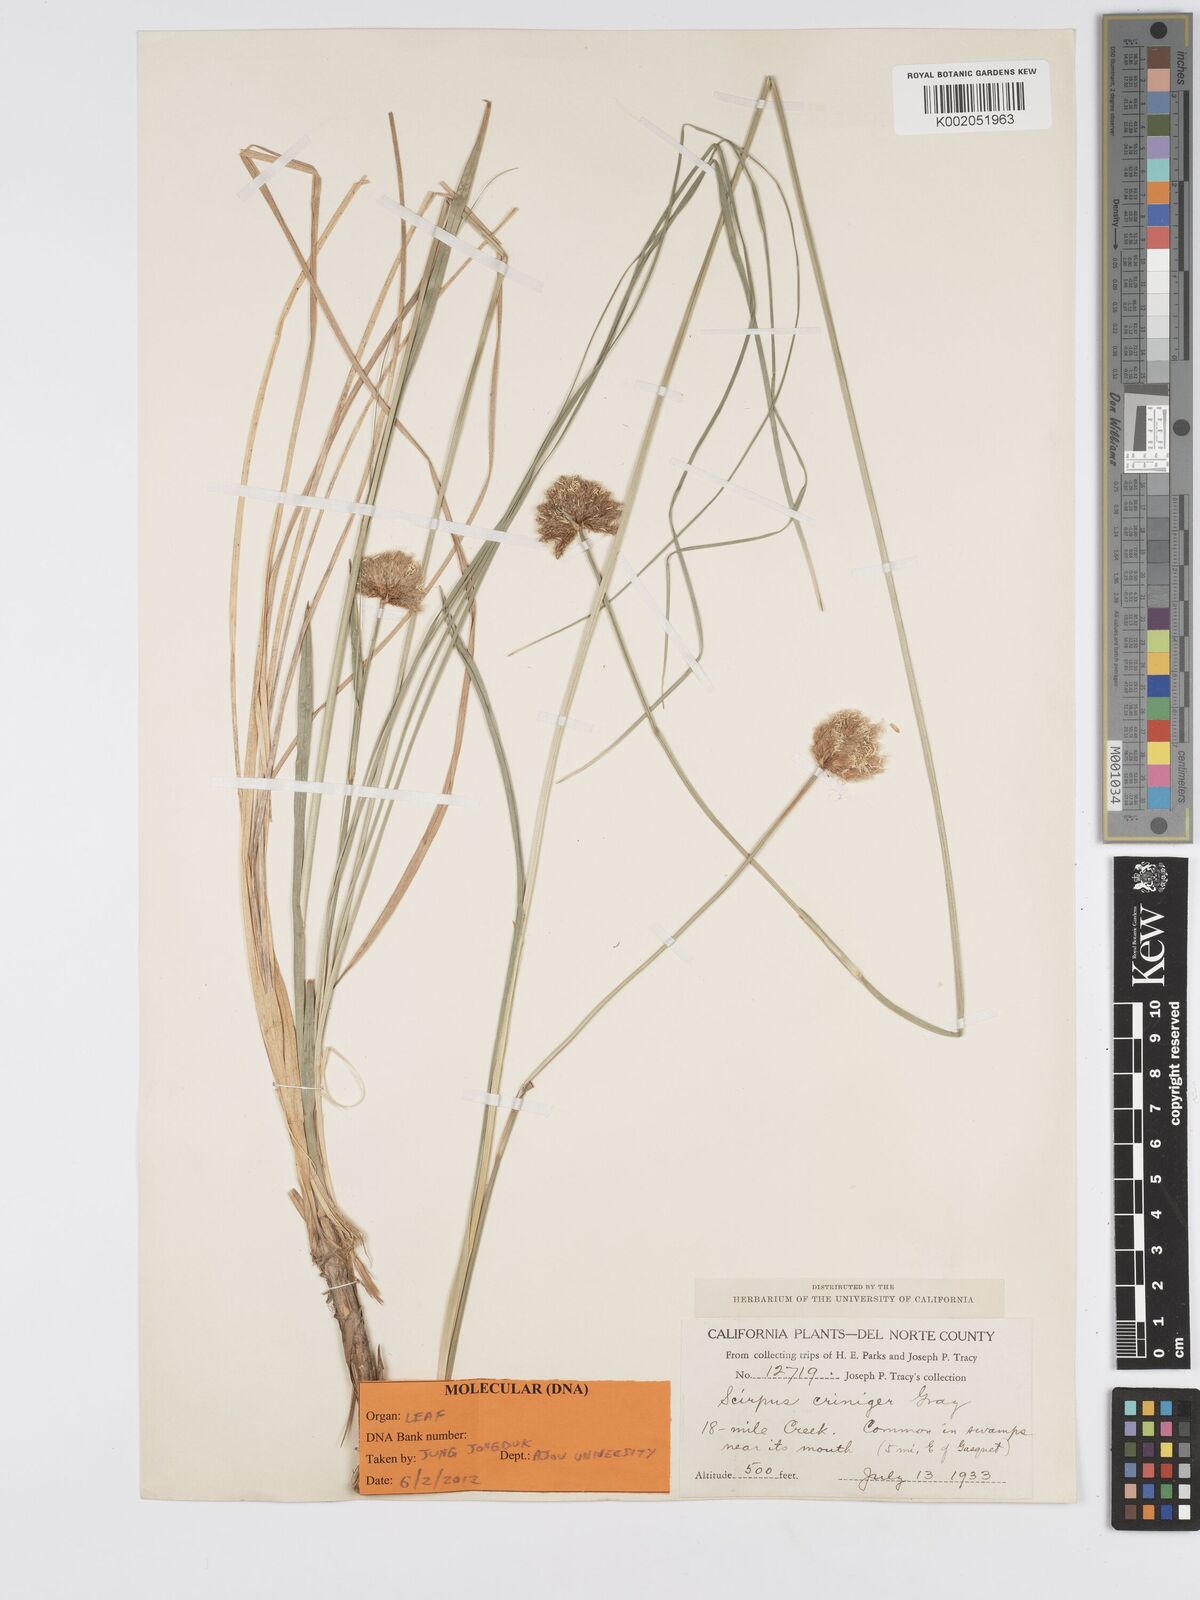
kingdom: Plantae
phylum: Tracheophyta
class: Liliopsida
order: Poales
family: Cyperaceae
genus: Calliscirpus
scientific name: Calliscirpus criniger
